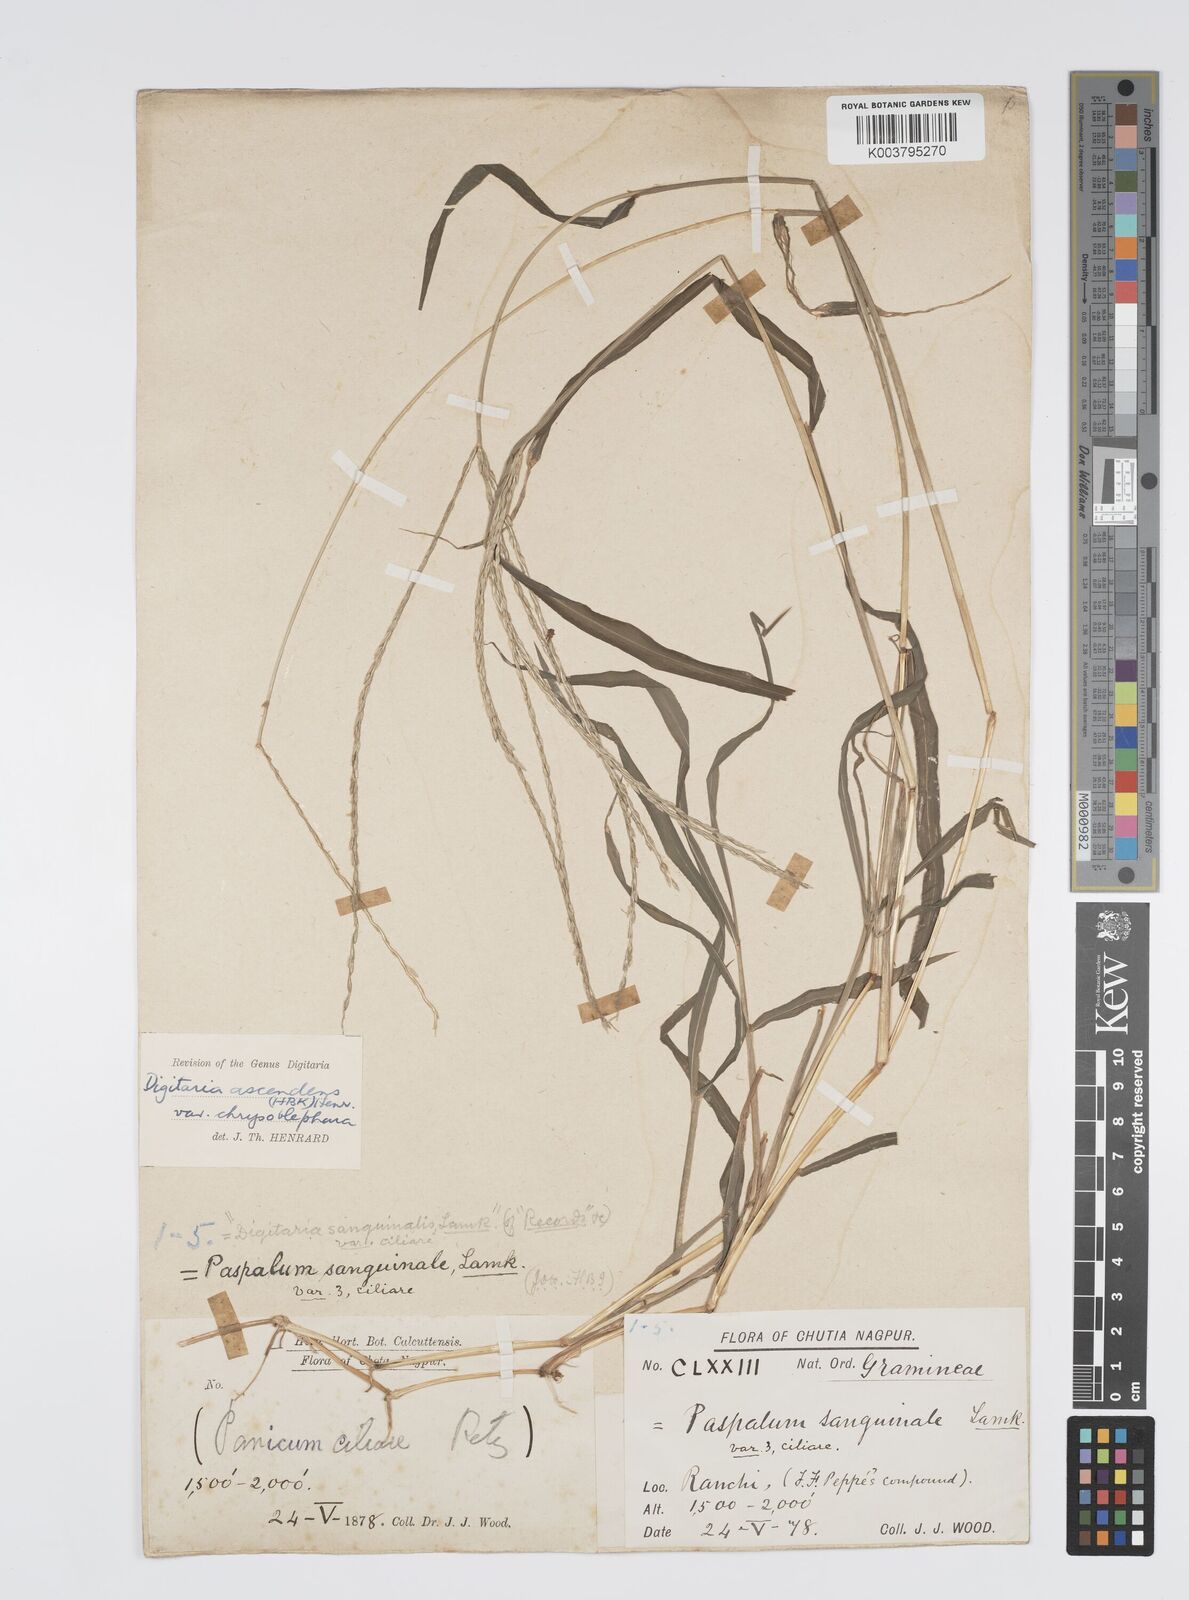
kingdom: Plantae
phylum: Tracheophyta
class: Liliopsida
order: Poales
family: Poaceae
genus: Digitaria
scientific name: Digitaria ciliaris
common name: Tropical finger-grass
